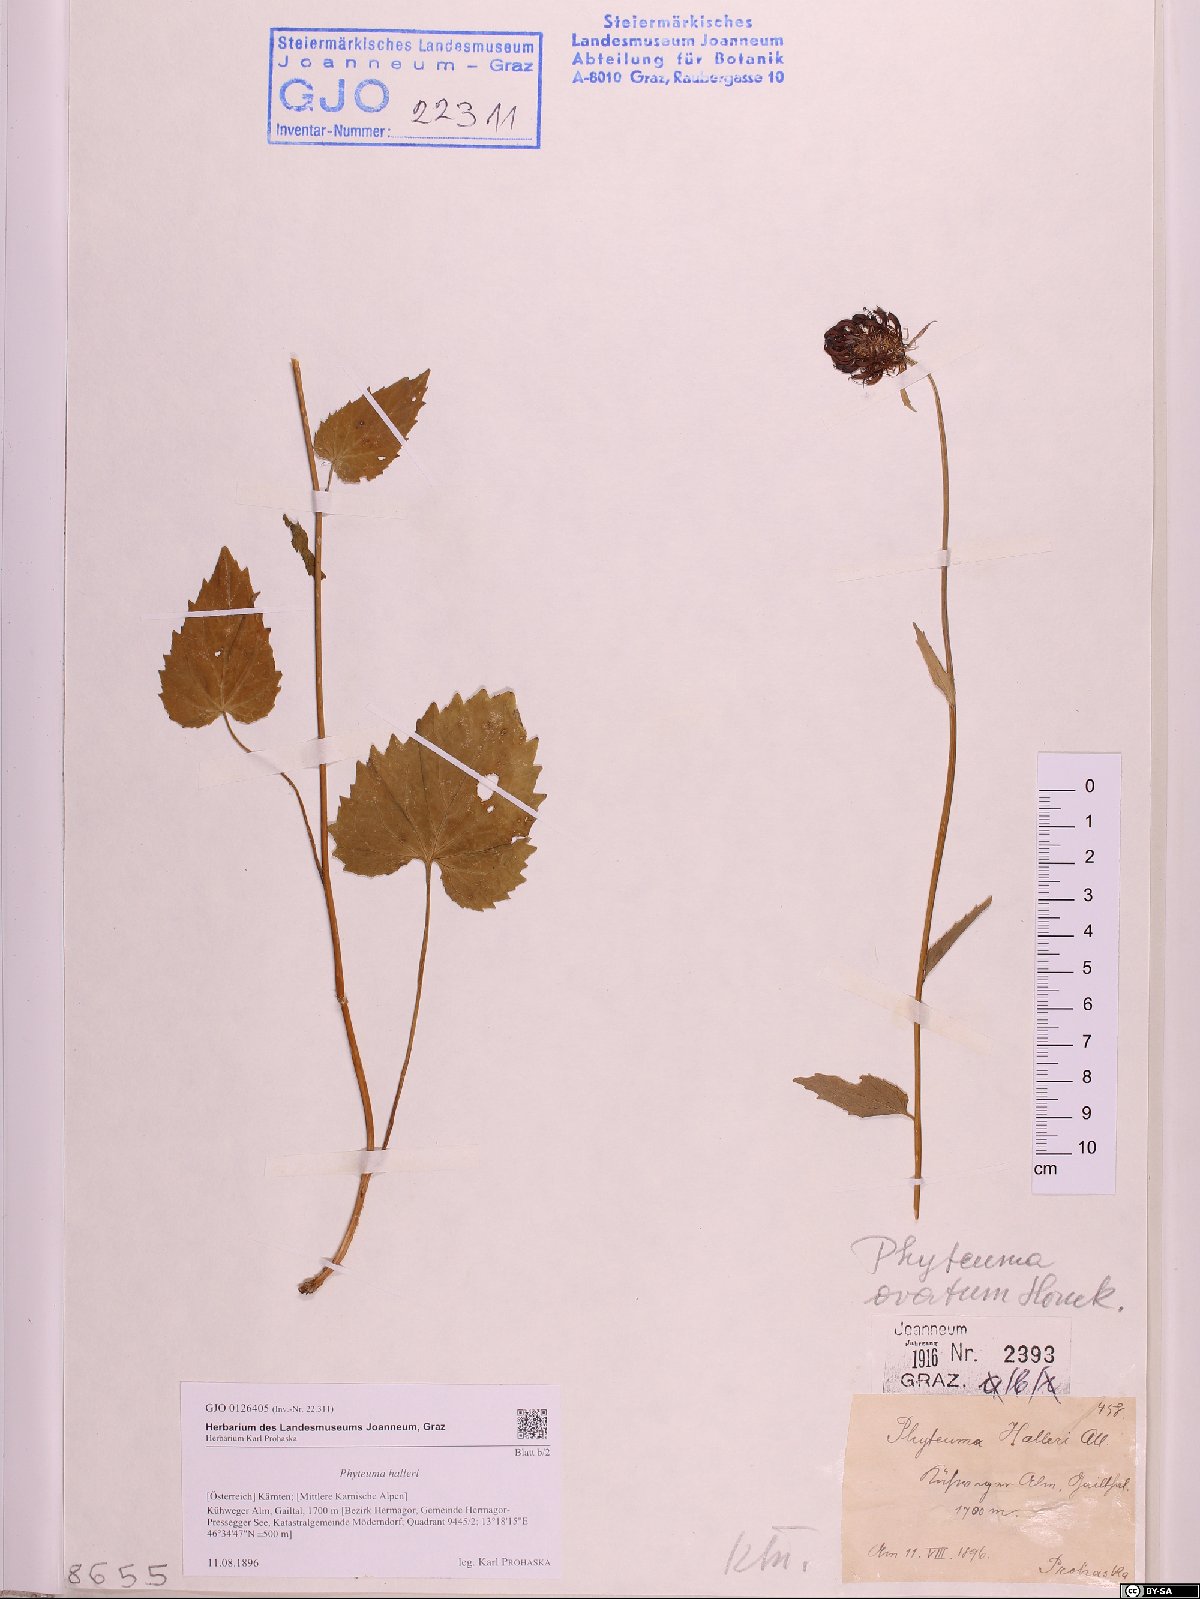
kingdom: Plantae
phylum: Tracheophyta
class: Magnoliopsida
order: Asterales
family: Campanulaceae
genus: Phyteuma
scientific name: Phyteuma ovatum
